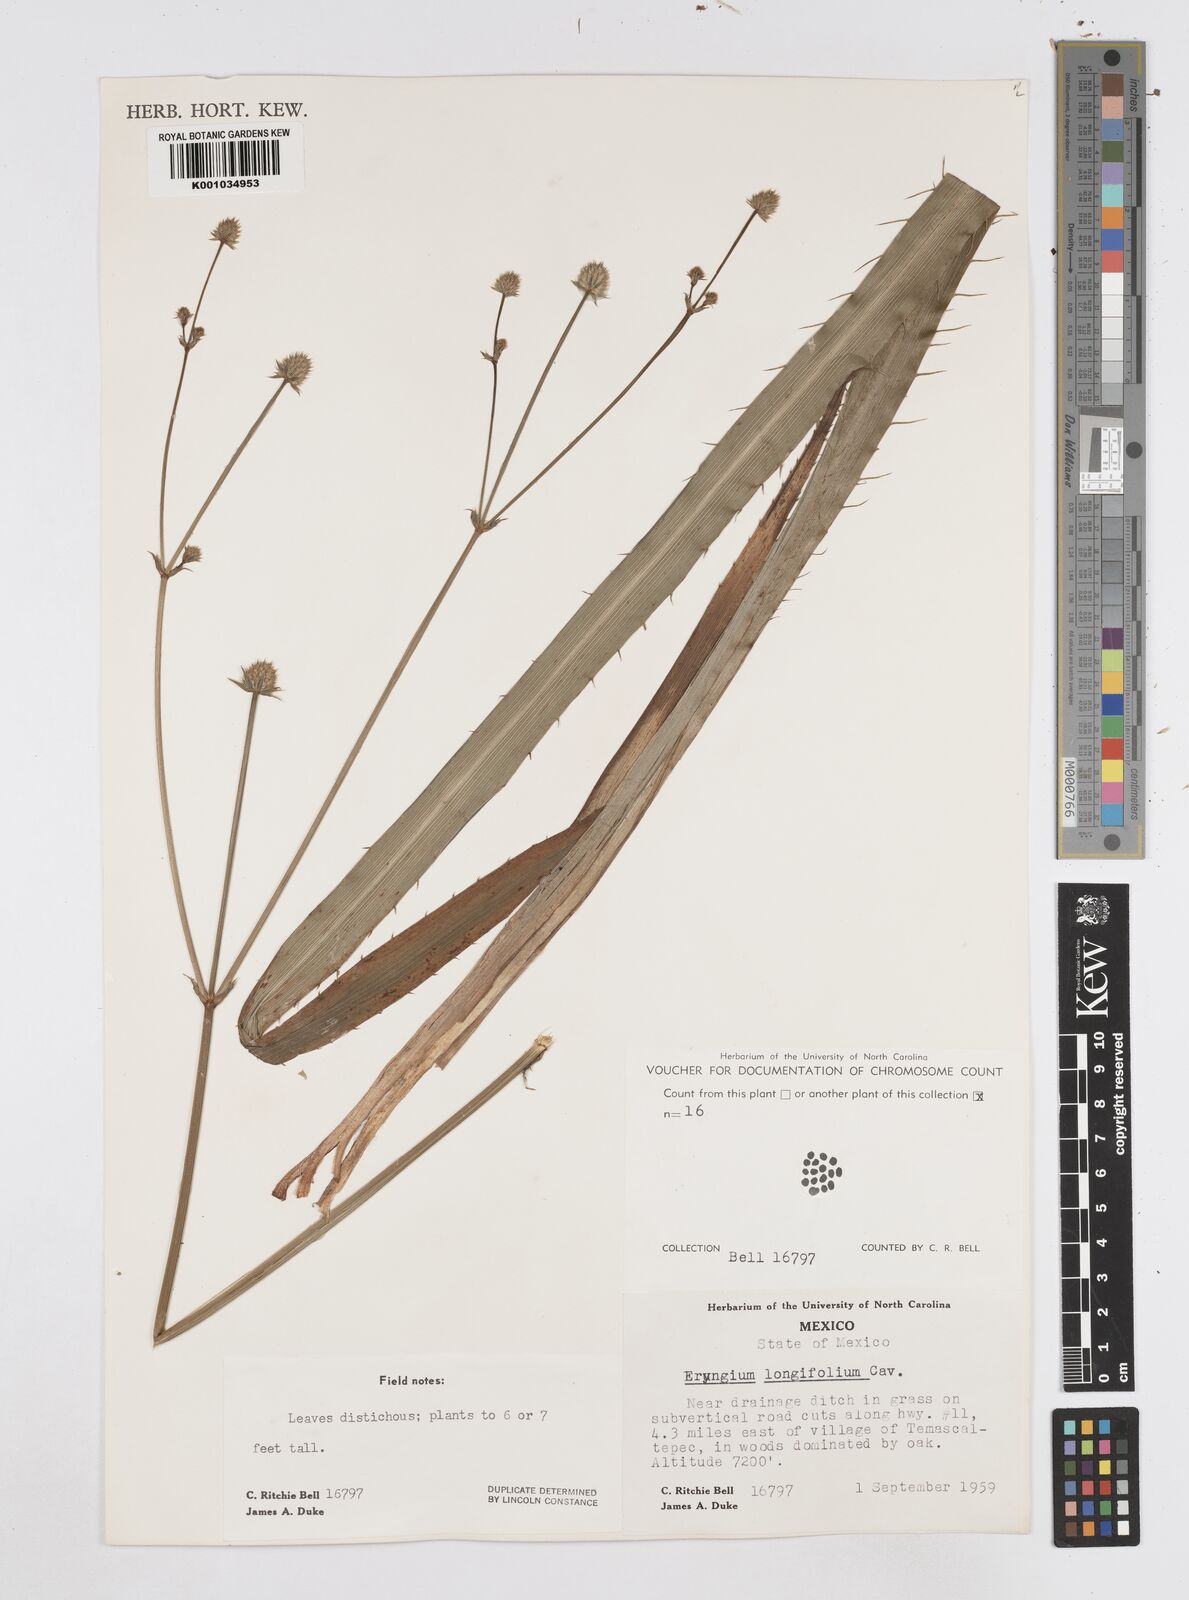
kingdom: Plantae
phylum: Tracheophyta
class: Magnoliopsida
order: Apiales
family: Apiaceae
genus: Eryngium
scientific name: Eryngium longifolium
